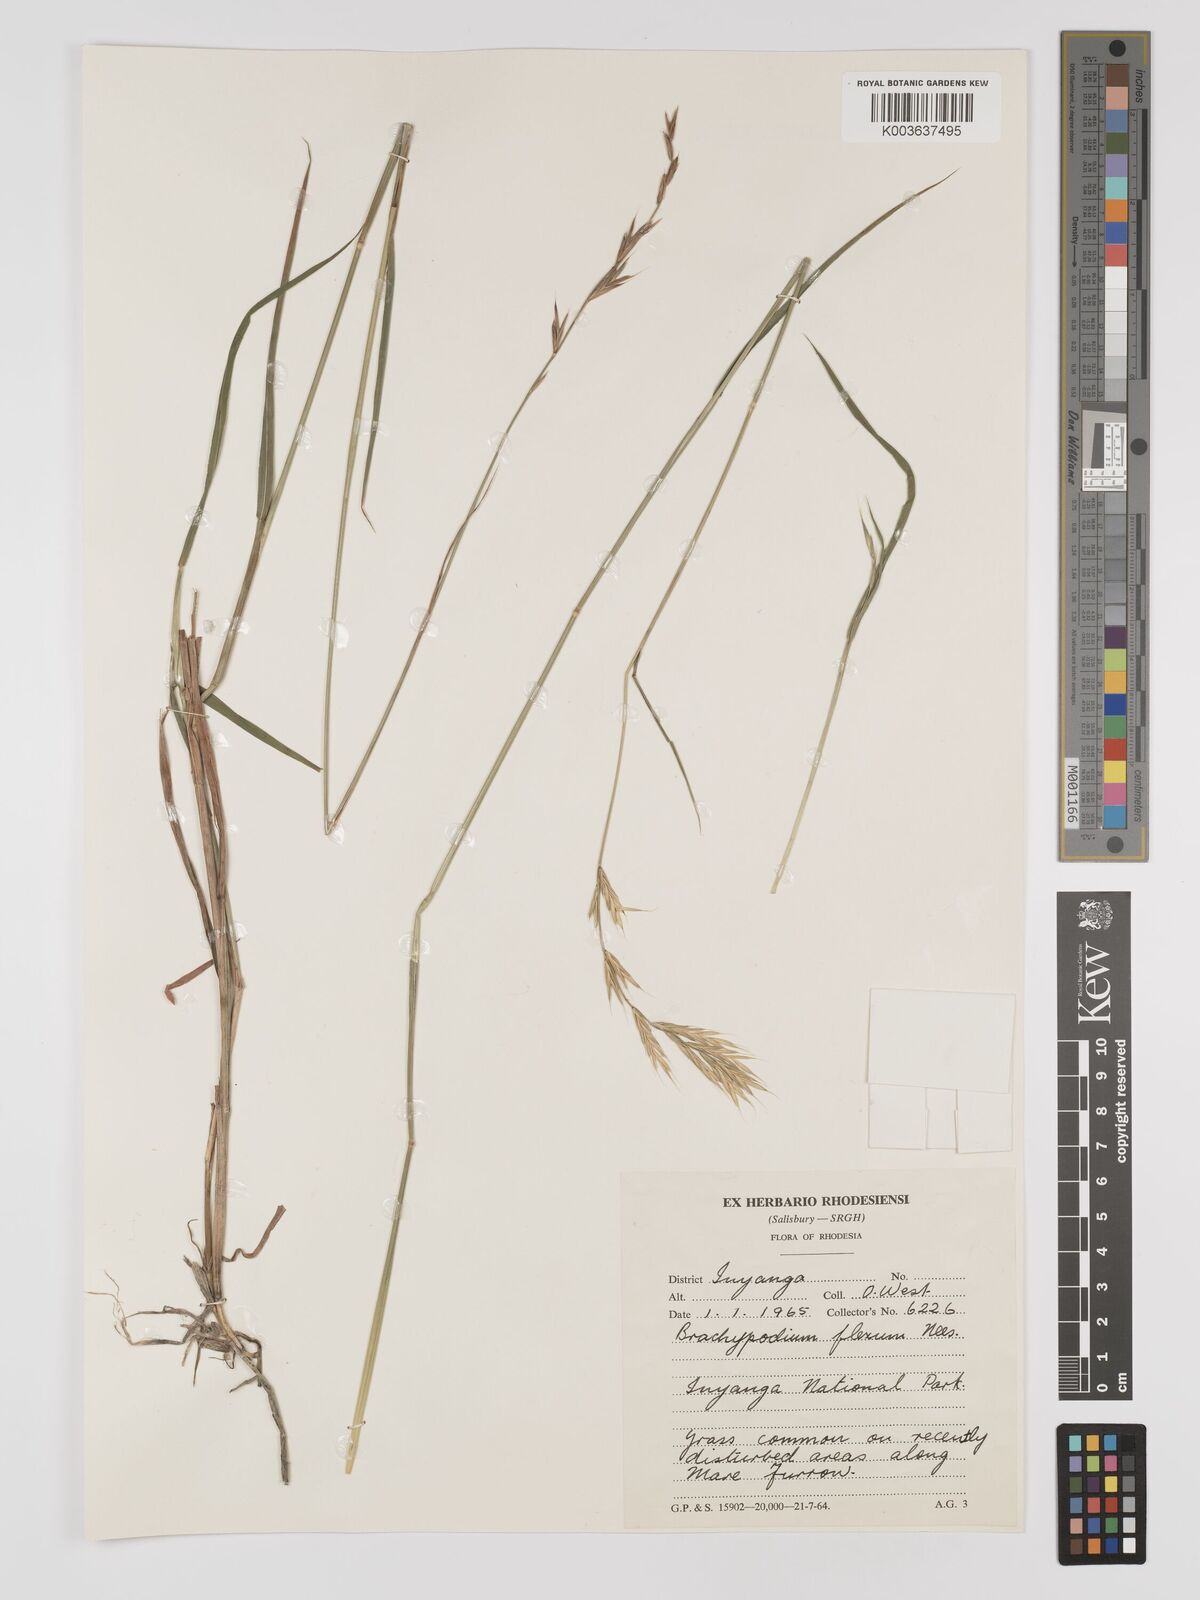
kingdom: Plantae
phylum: Tracheophyta
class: Liliopsida
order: Poales
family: Poaceae
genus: Brachypodium
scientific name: Brachypodium flexum
